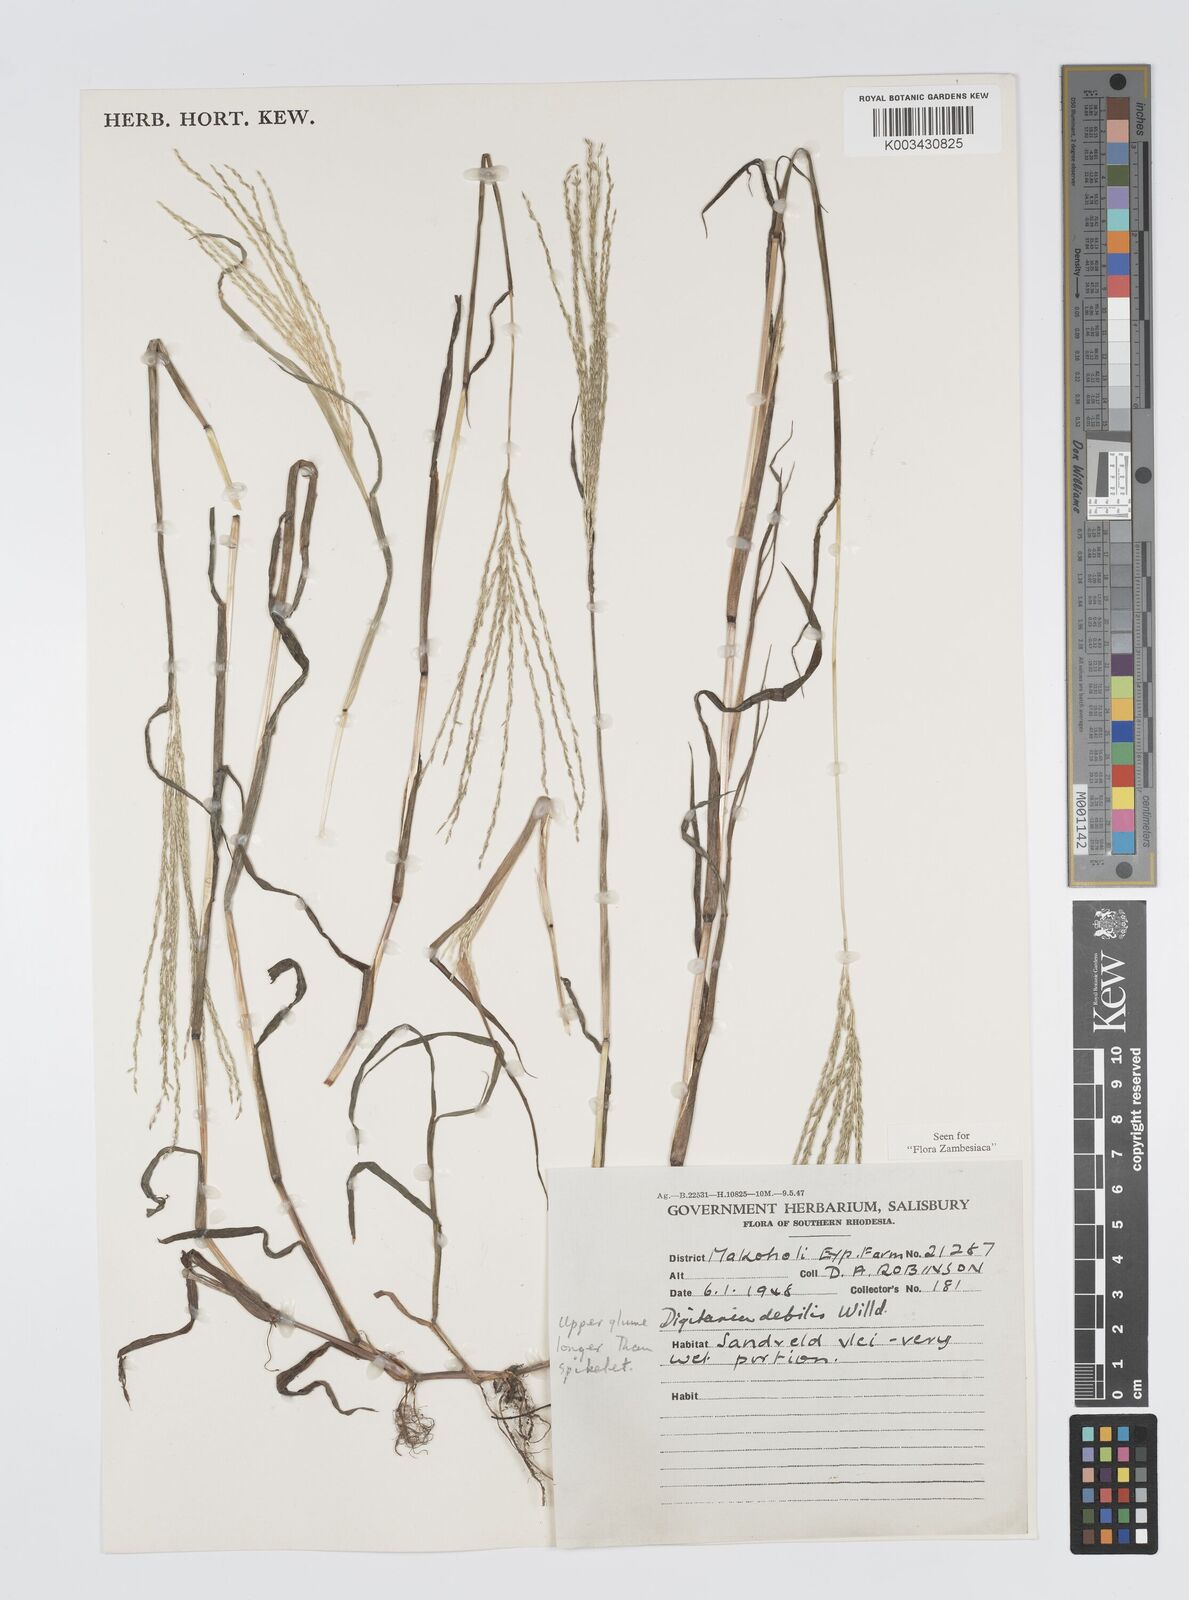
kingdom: Plantae
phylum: Tracheophyta
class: Liliopsida
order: Poales
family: Poaceae
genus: Digitaria
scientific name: Digitaria debilis
